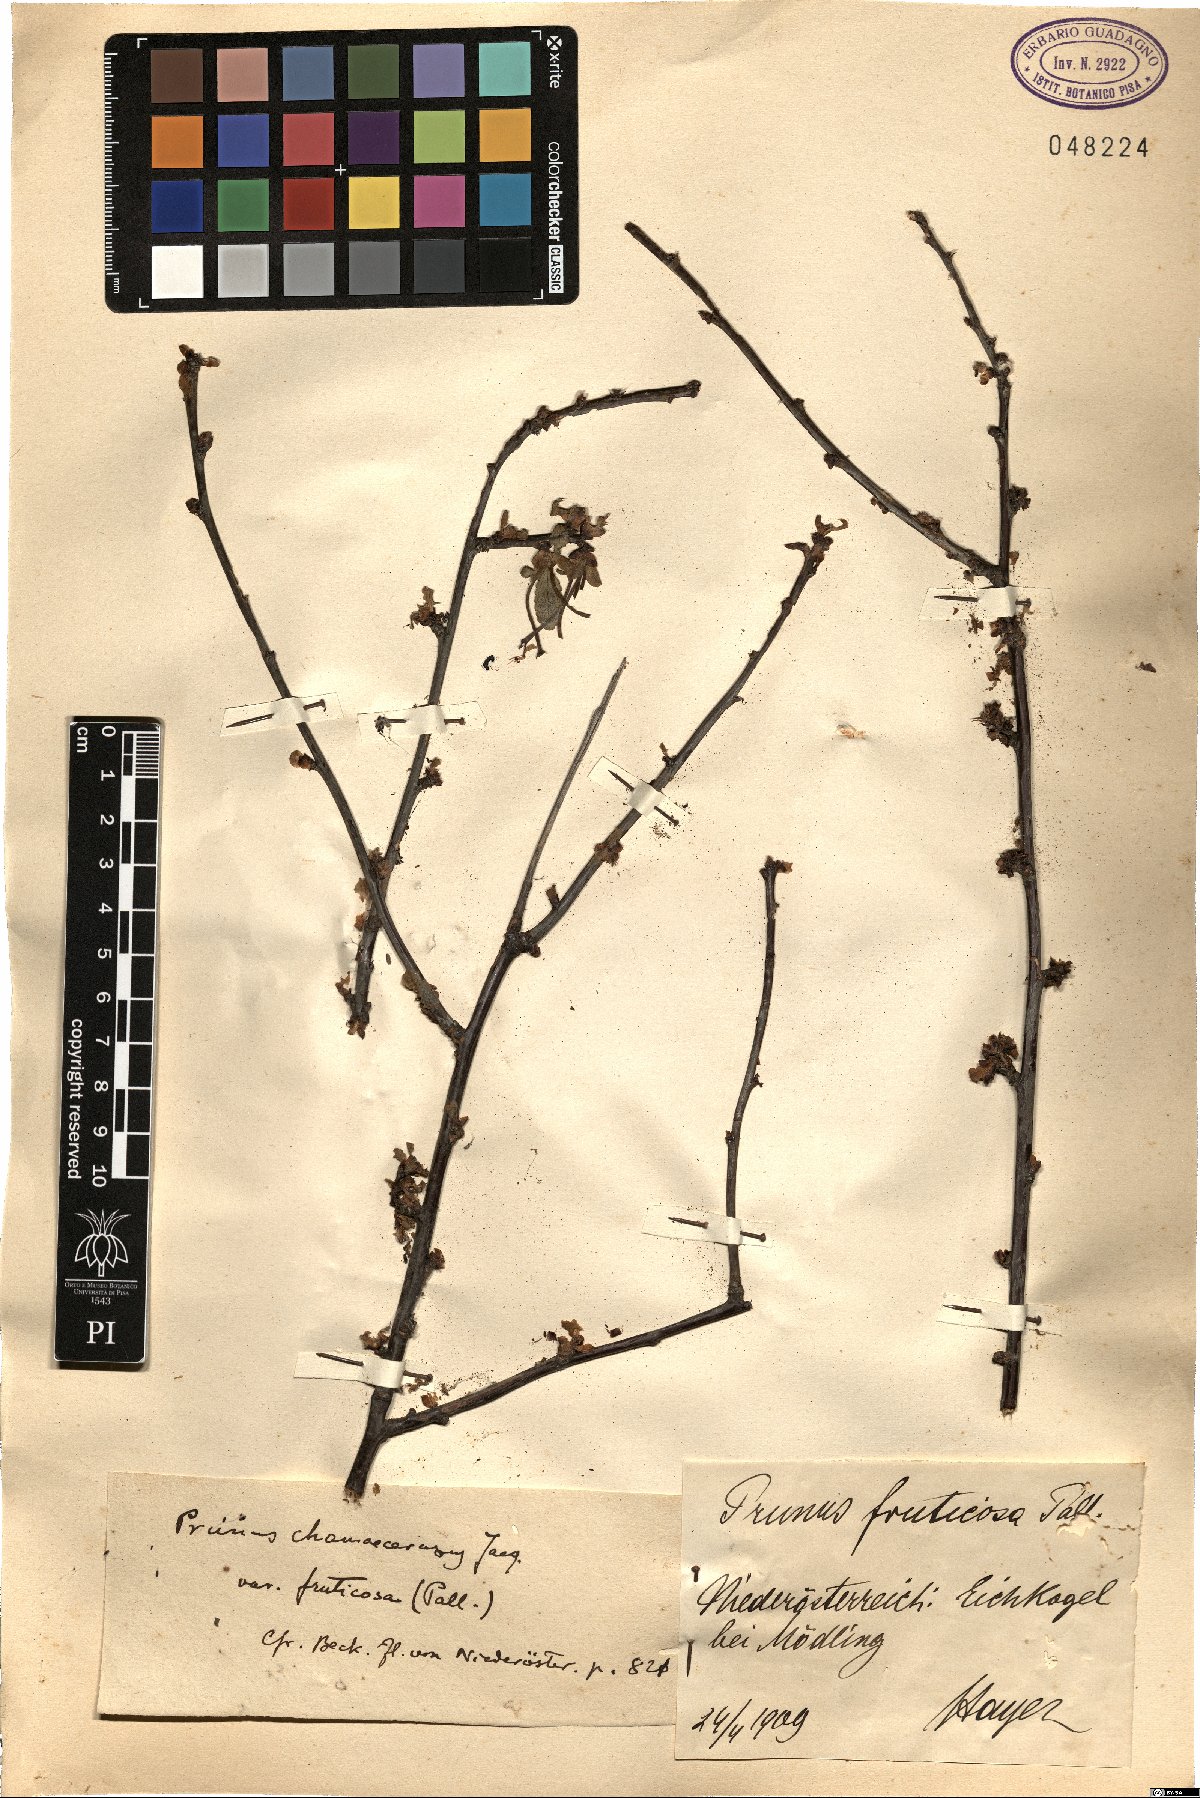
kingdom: Plantae
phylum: Tracheophyta
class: Magnoliopsida
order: Rosales
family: Rosaceae
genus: Prunus
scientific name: Prunus fruticosa
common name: European dwarf cherry
